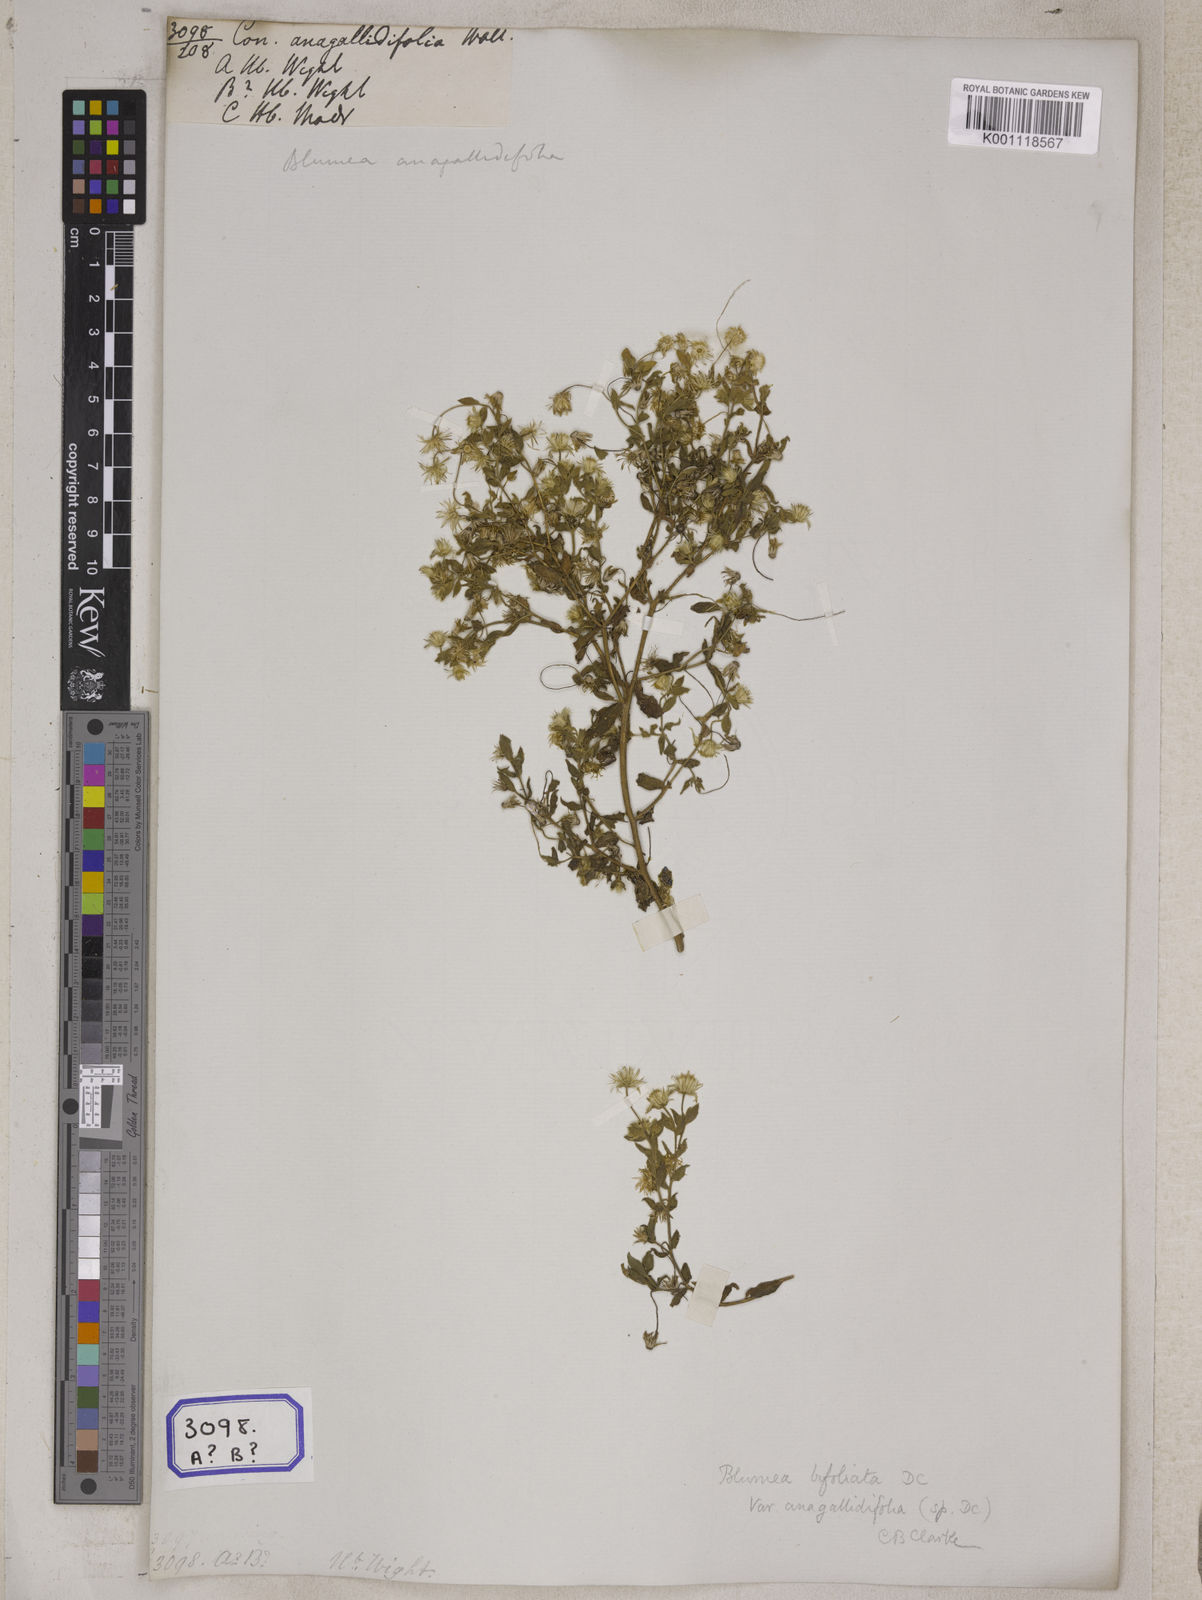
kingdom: Plantae
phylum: Tracheophyta
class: Magnoliopsida
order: Asterales
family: Asteraceae
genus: Blumea
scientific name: Blumea tenella
